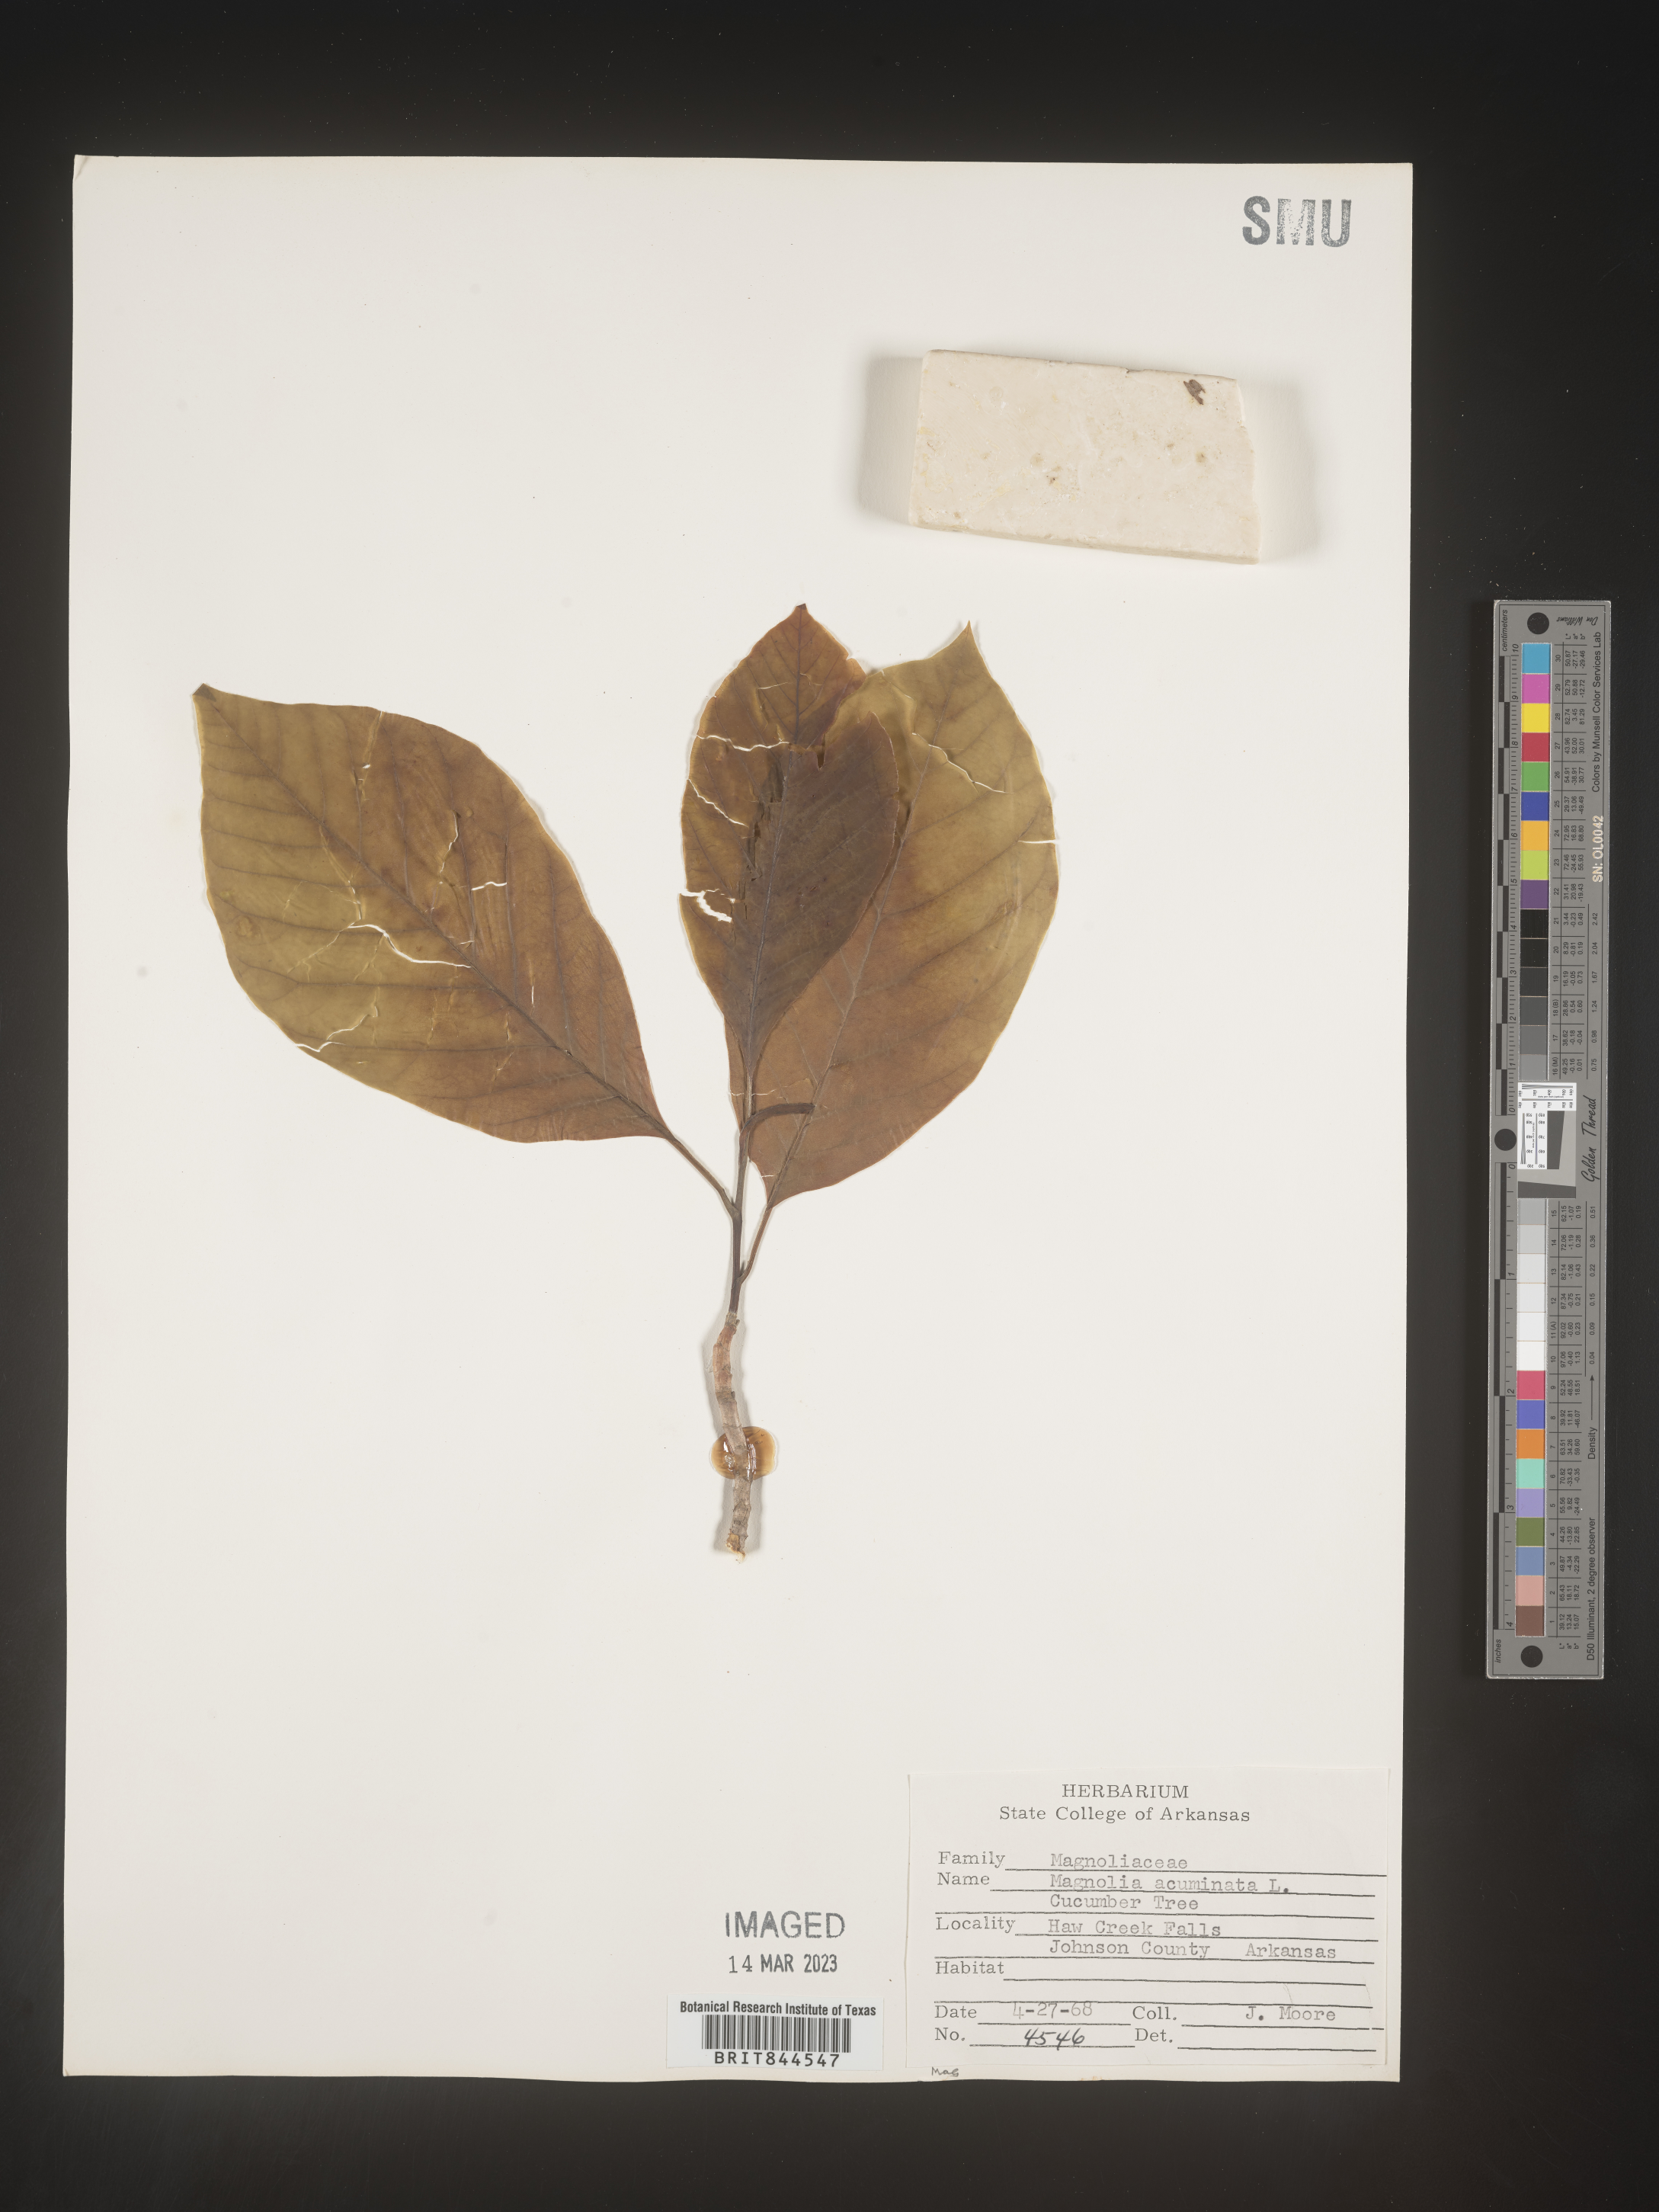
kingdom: Plantae
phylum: Tracheophyta
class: Magnoliopsida
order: Magnoliales
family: Magnoliaceae
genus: Magnolia
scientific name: Magnolia acuminata
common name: Cucumber magnolia
